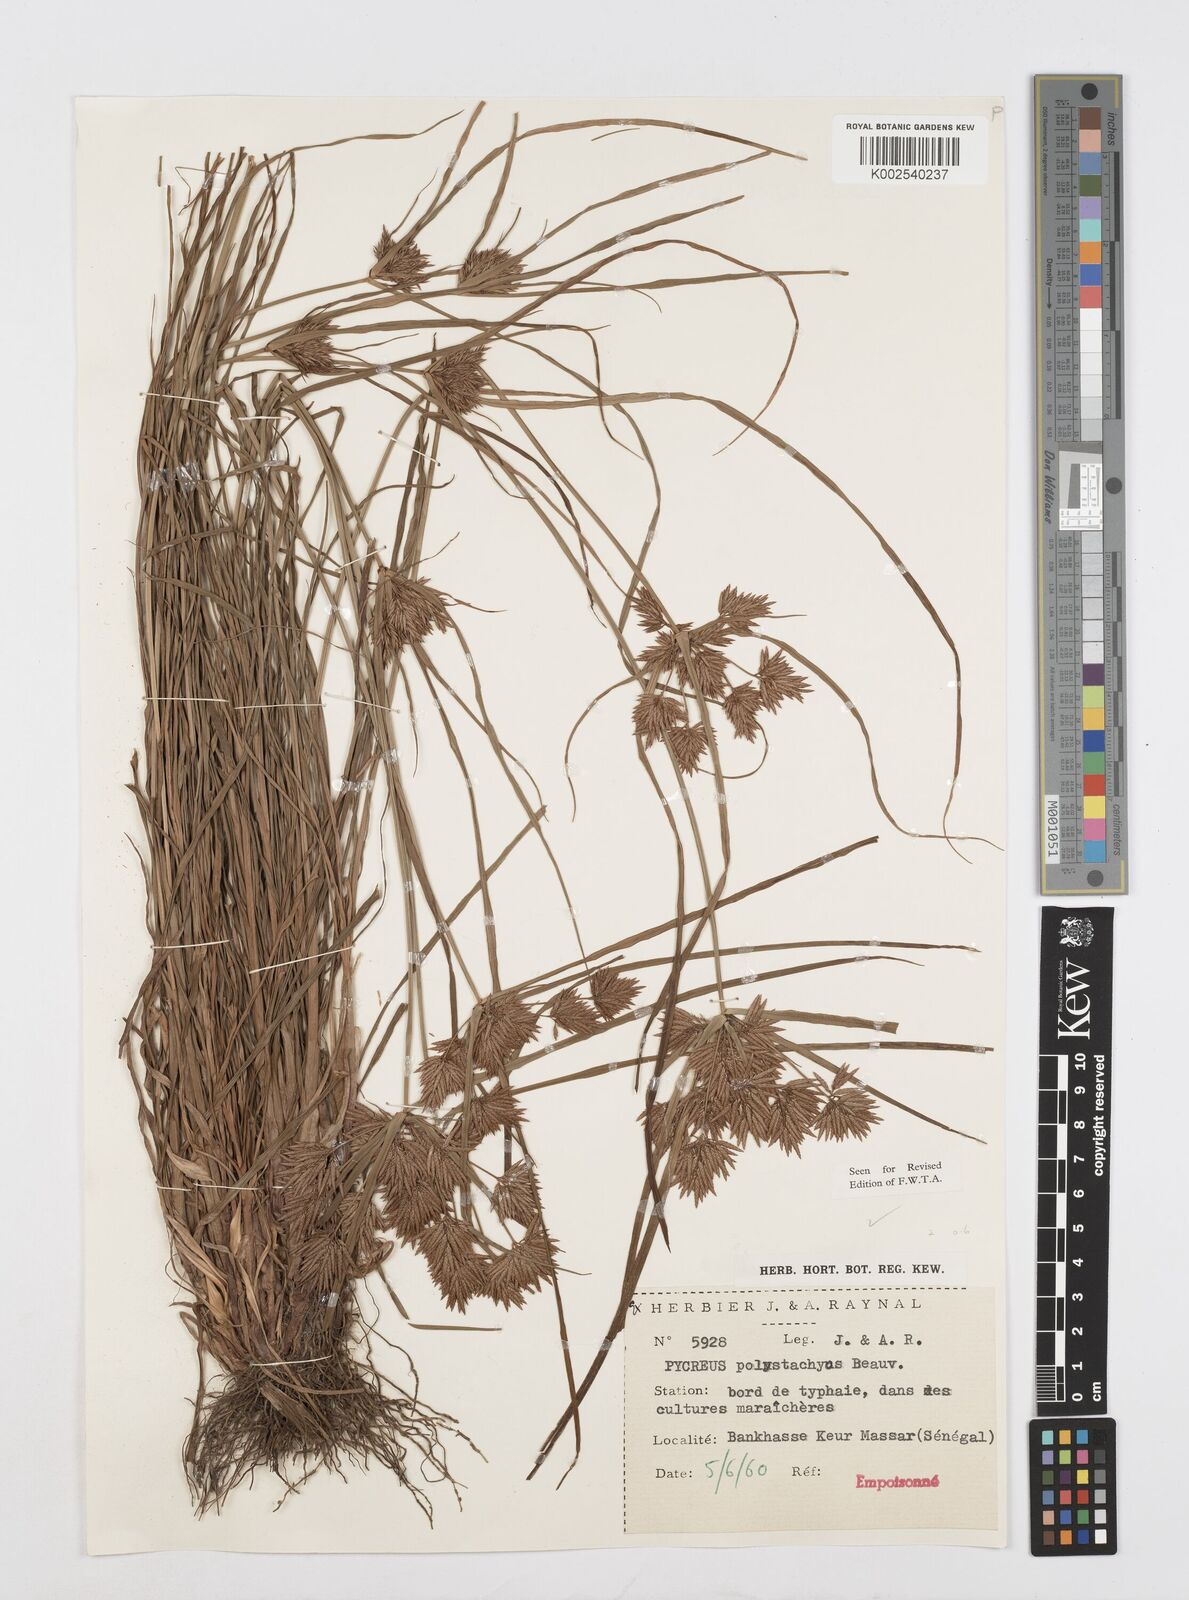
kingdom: Plantae
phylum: Tracheophyta
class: Liliopsida
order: Poales
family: Cyperaceae
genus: Cyperus
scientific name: Cyperus polystachyos
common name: Bunchy flat sedge
